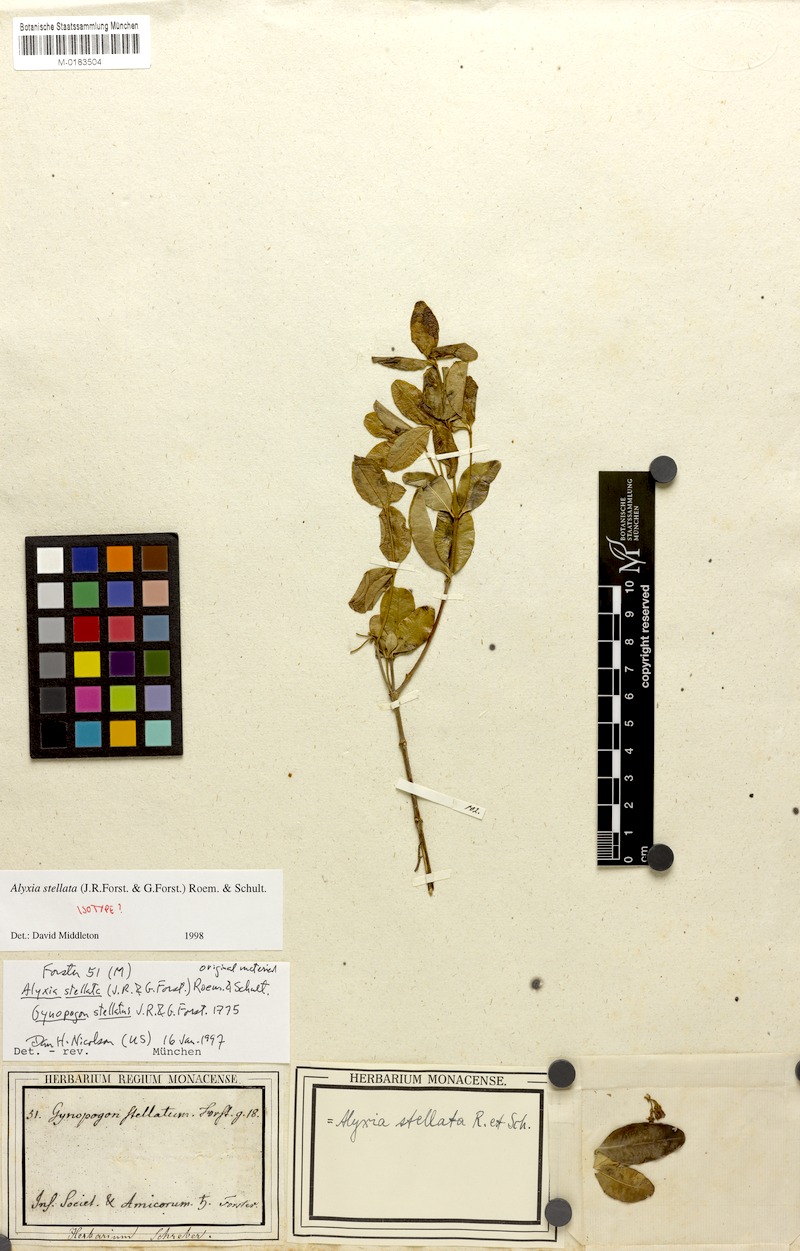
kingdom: Plantae
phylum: Tracheophyta
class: Magnoliopsida
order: Gentianales
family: Apocynaceae
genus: Alyxia
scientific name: Alyxia stellata
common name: Maile
